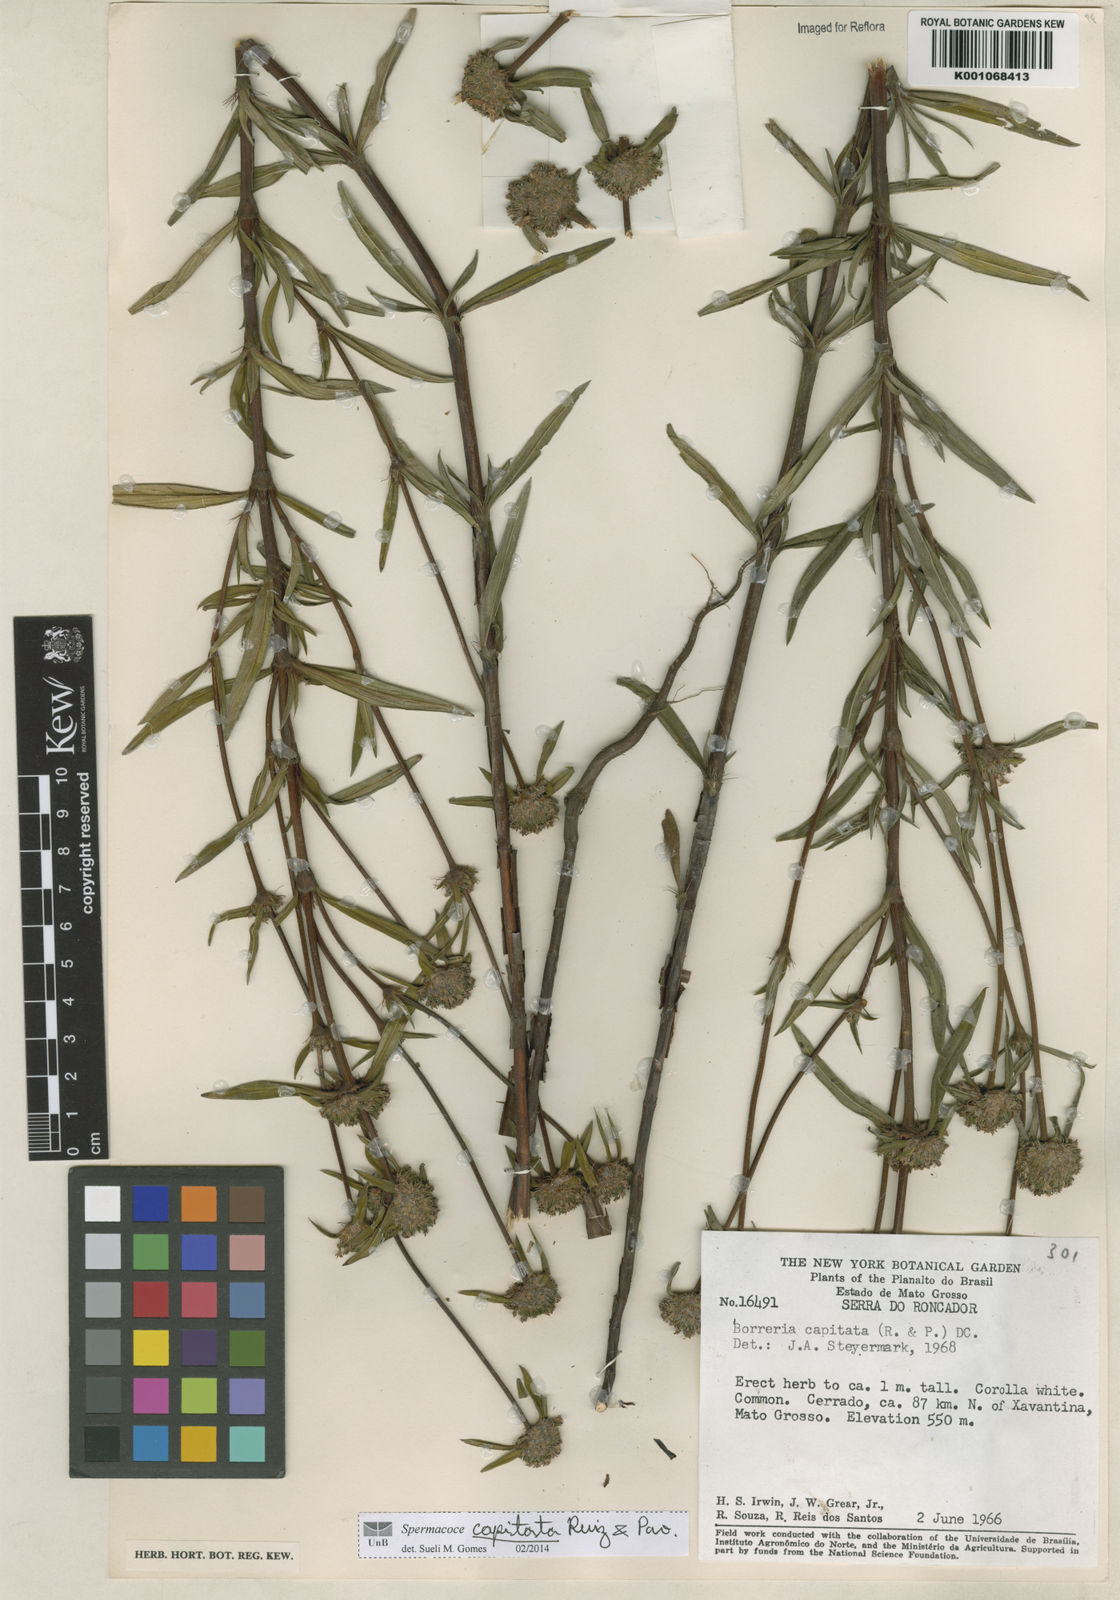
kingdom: Plantae
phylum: Tracheophyta
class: Magnoliopsida
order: Gentianales
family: Rubiaceae
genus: Spermacoce
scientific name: Spermacoce capitata
